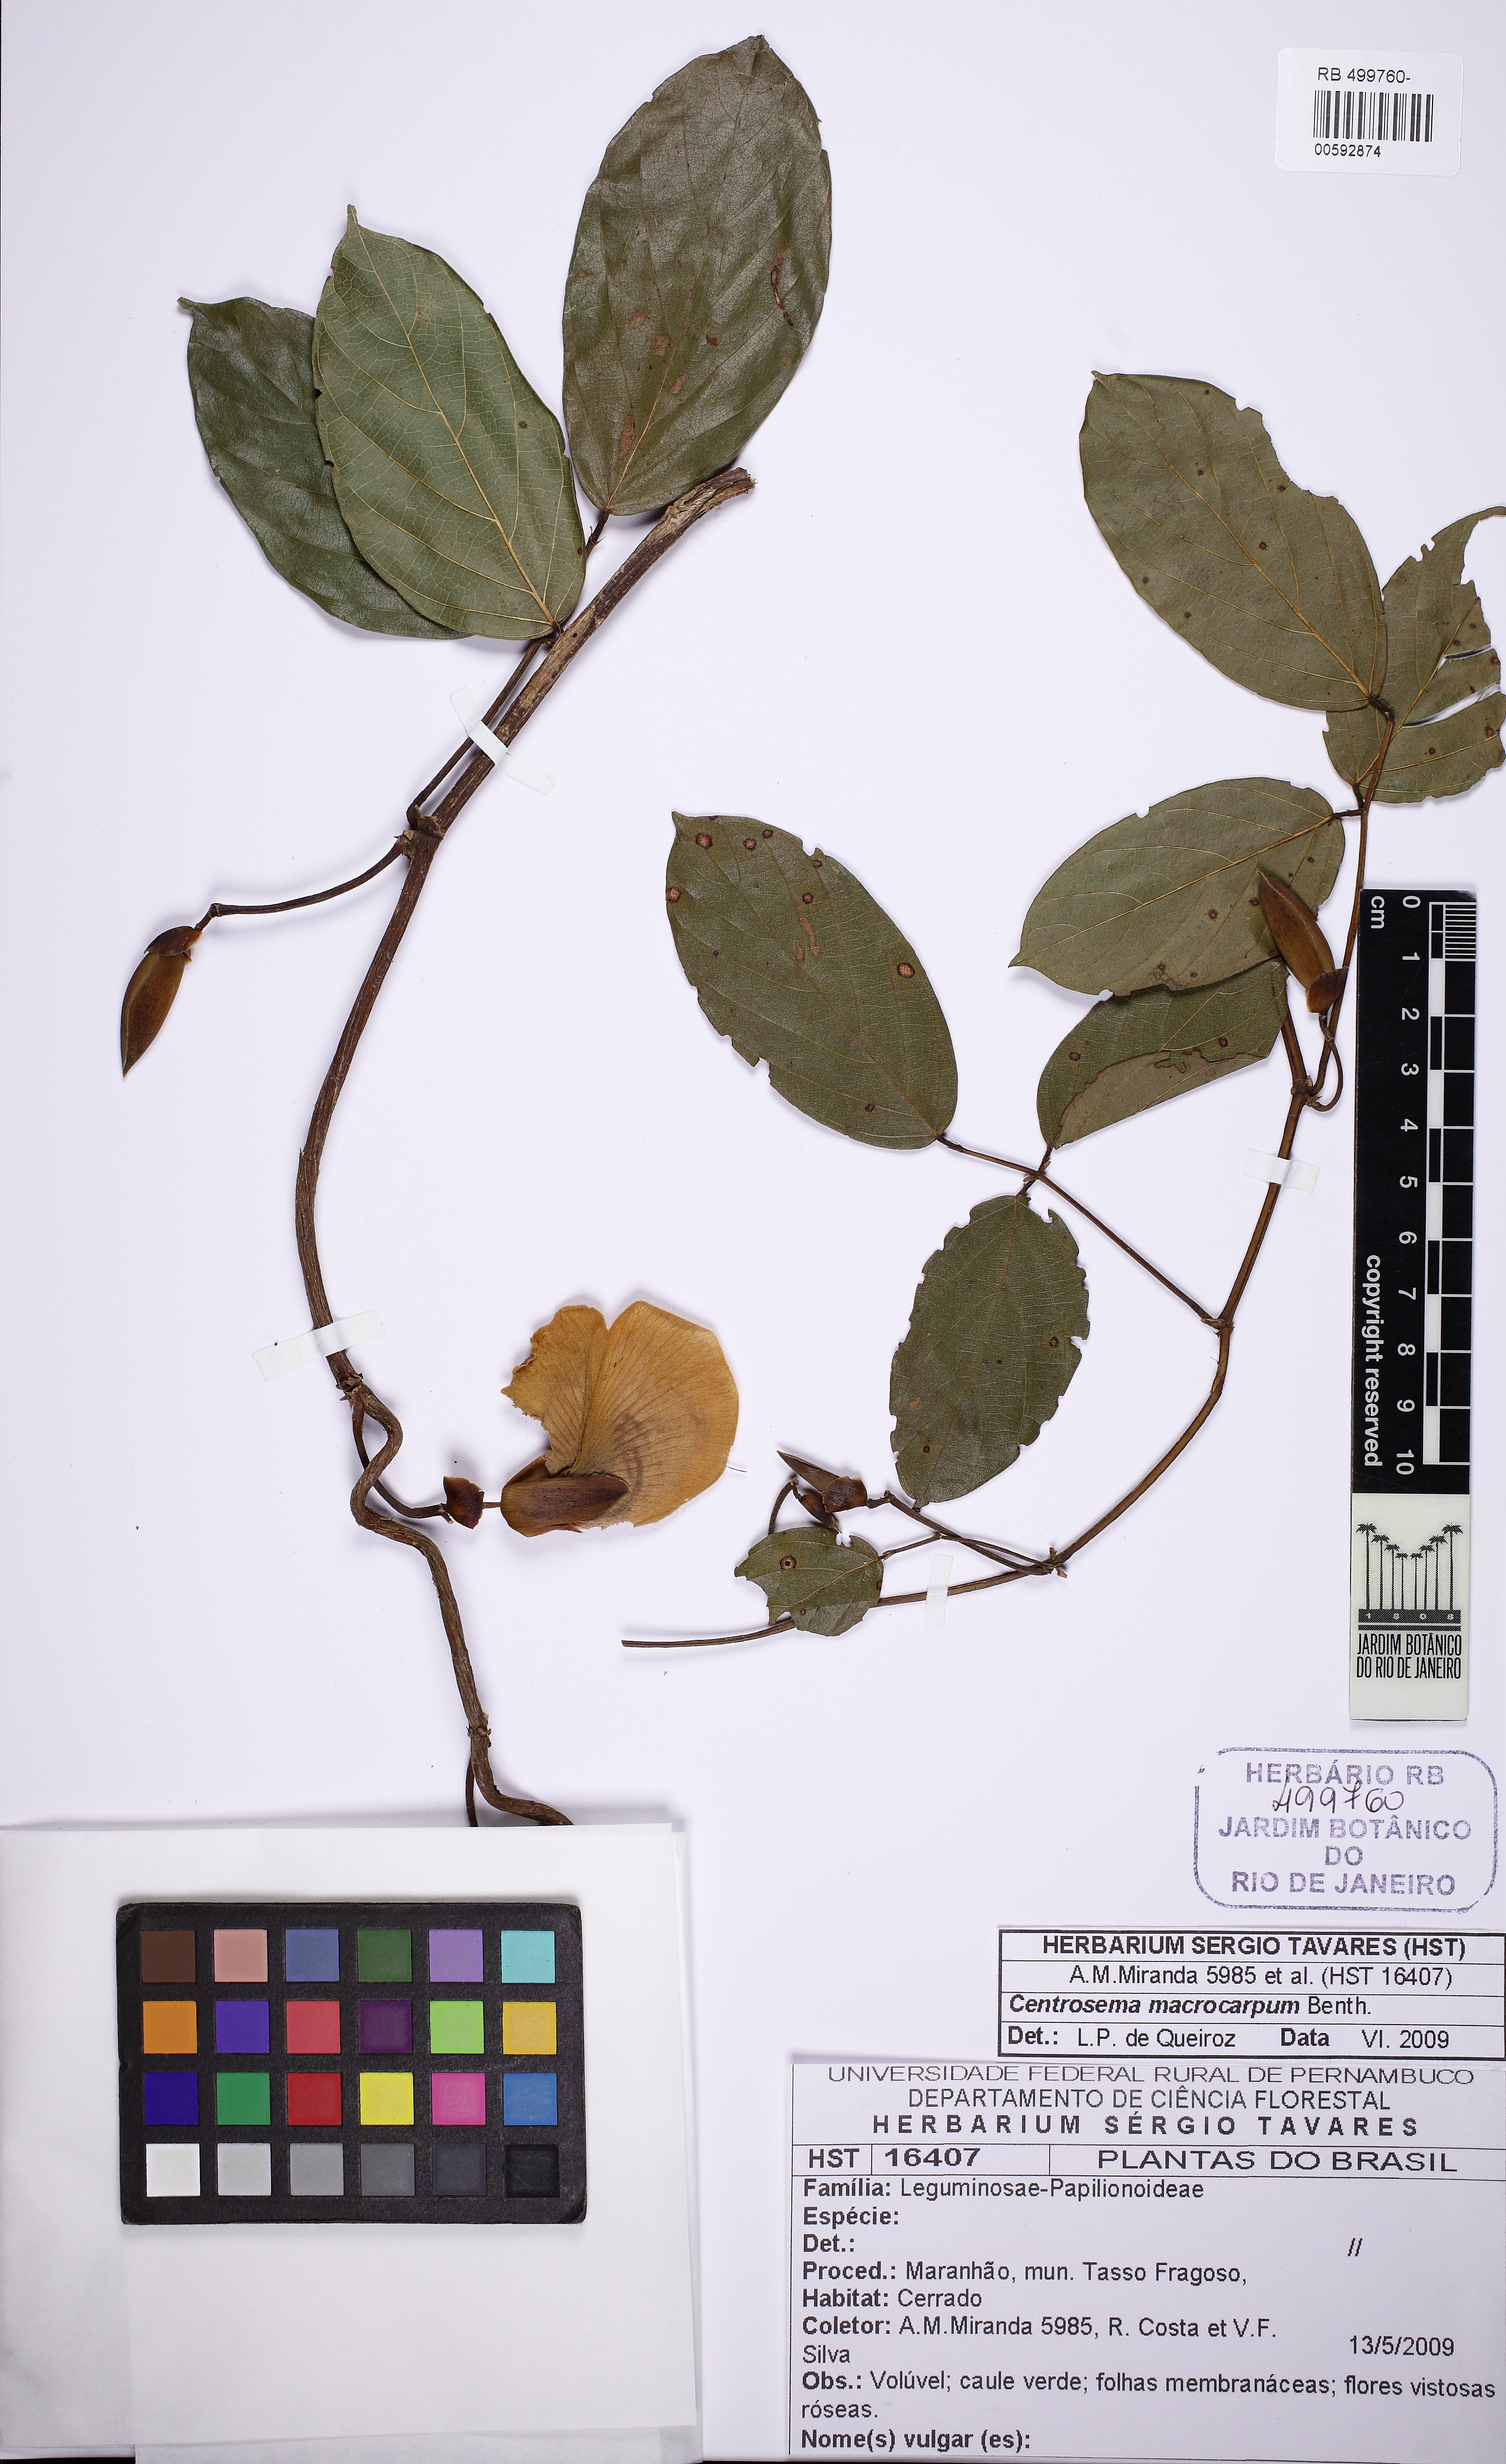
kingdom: Plantae
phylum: Tracheophyta
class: Magnoliopsida
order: Fabales
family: Fabaceae
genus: Centrosema
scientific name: Centrosema platycarpum
